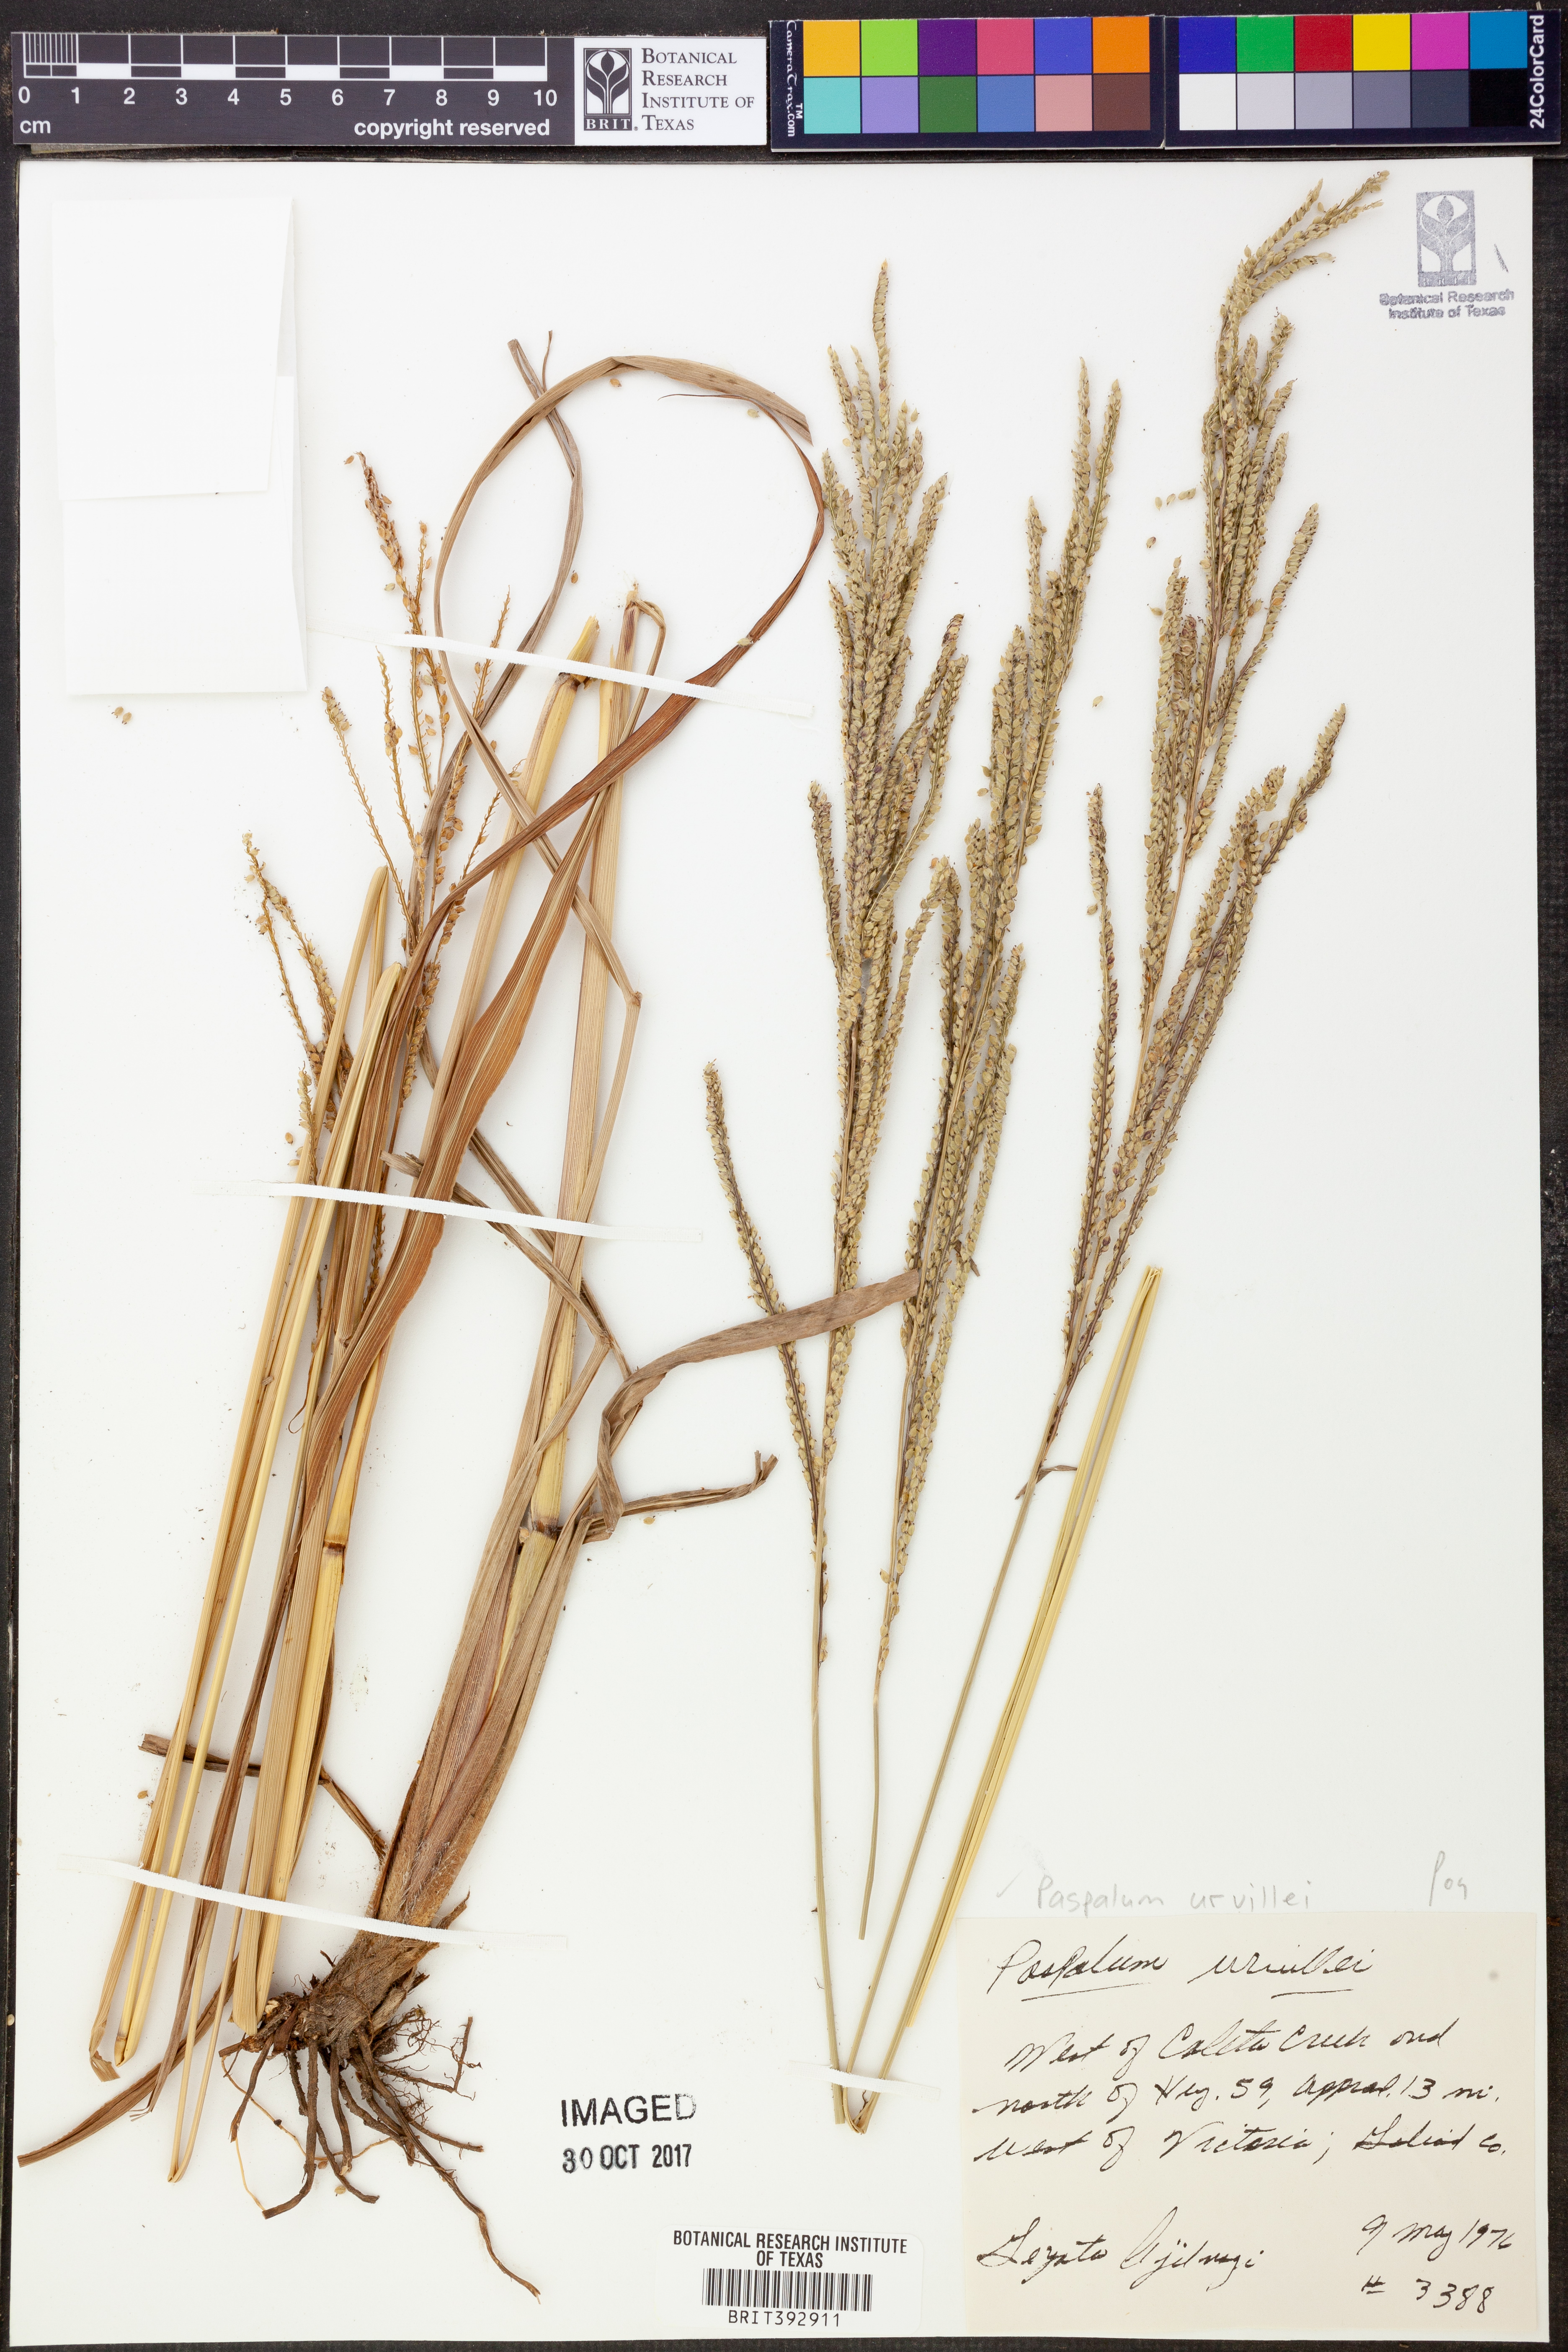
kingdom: Plantae
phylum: Tracheophyta
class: Liliopsida
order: Poales
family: Poaceae
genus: Paspalum
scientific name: Paspalum urvillei
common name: Vasey's grass
